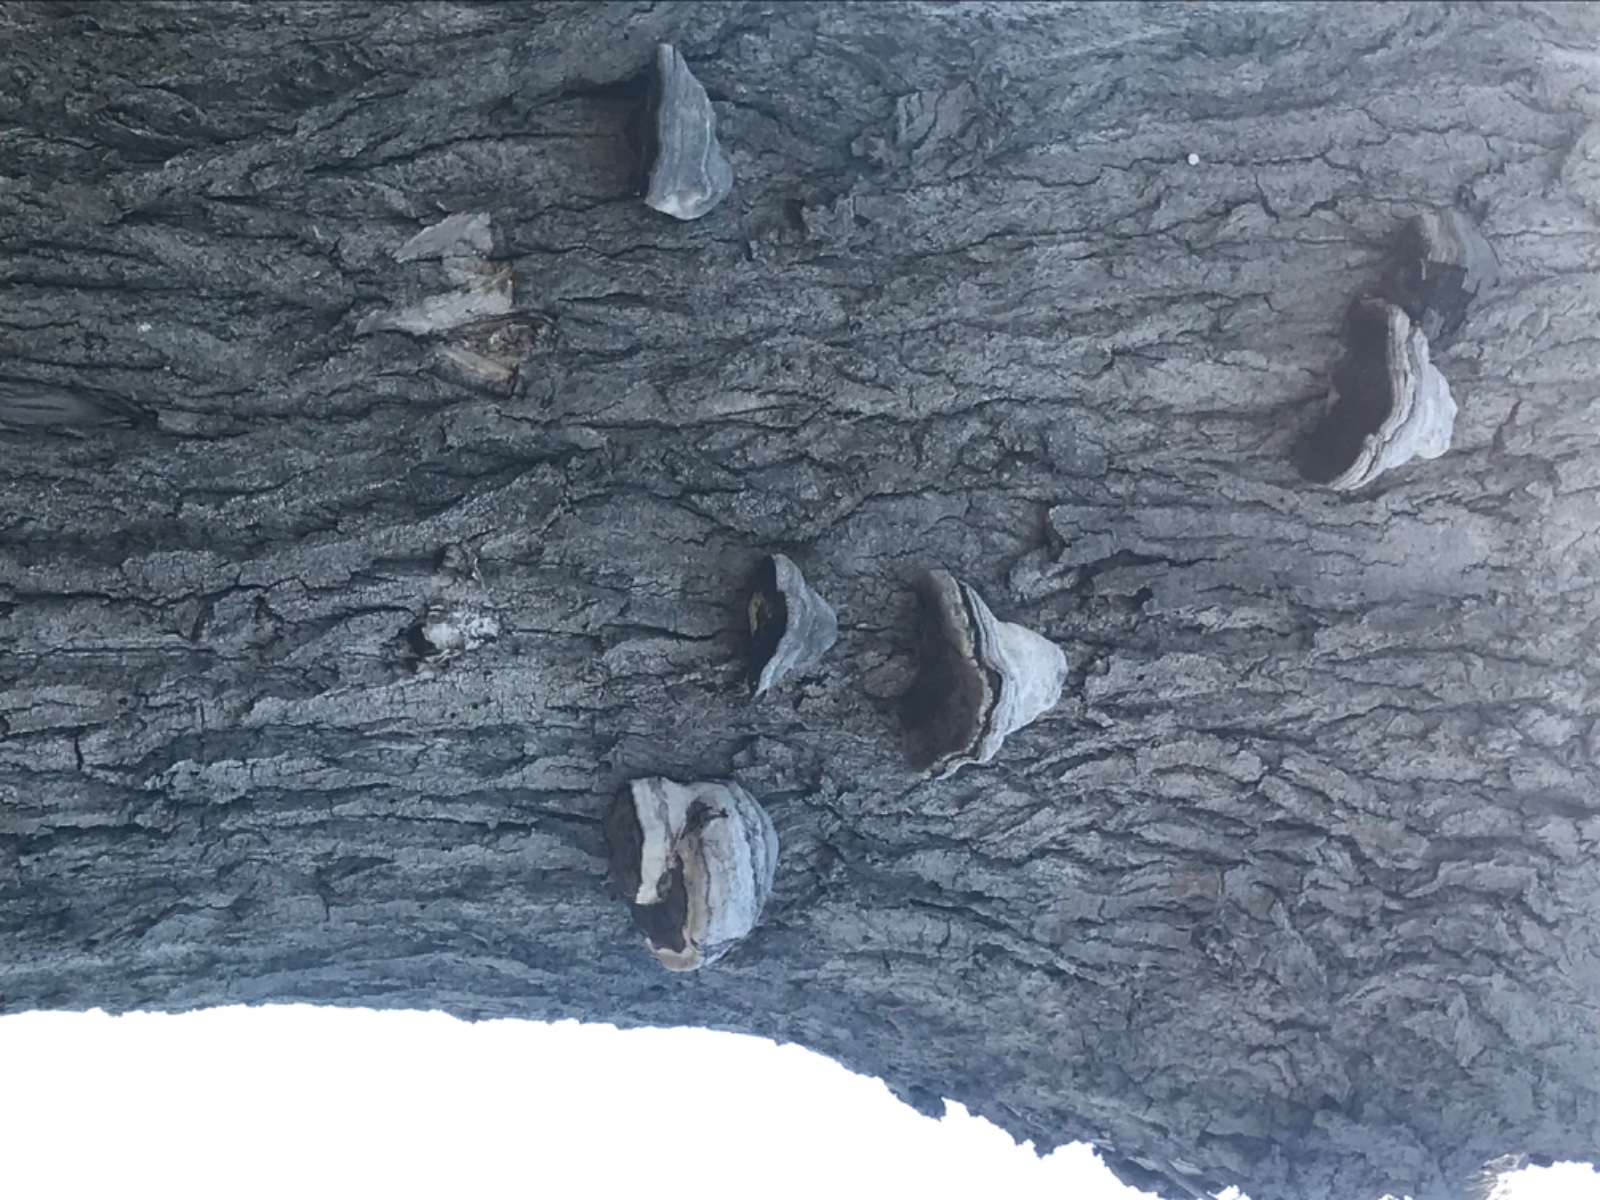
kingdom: Fungi
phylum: Basidiomycota
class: Agaricomycetes
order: Polyporales
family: Polyporaceae
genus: Fomes
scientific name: Fomes fomentarius
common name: tøndersvamp
